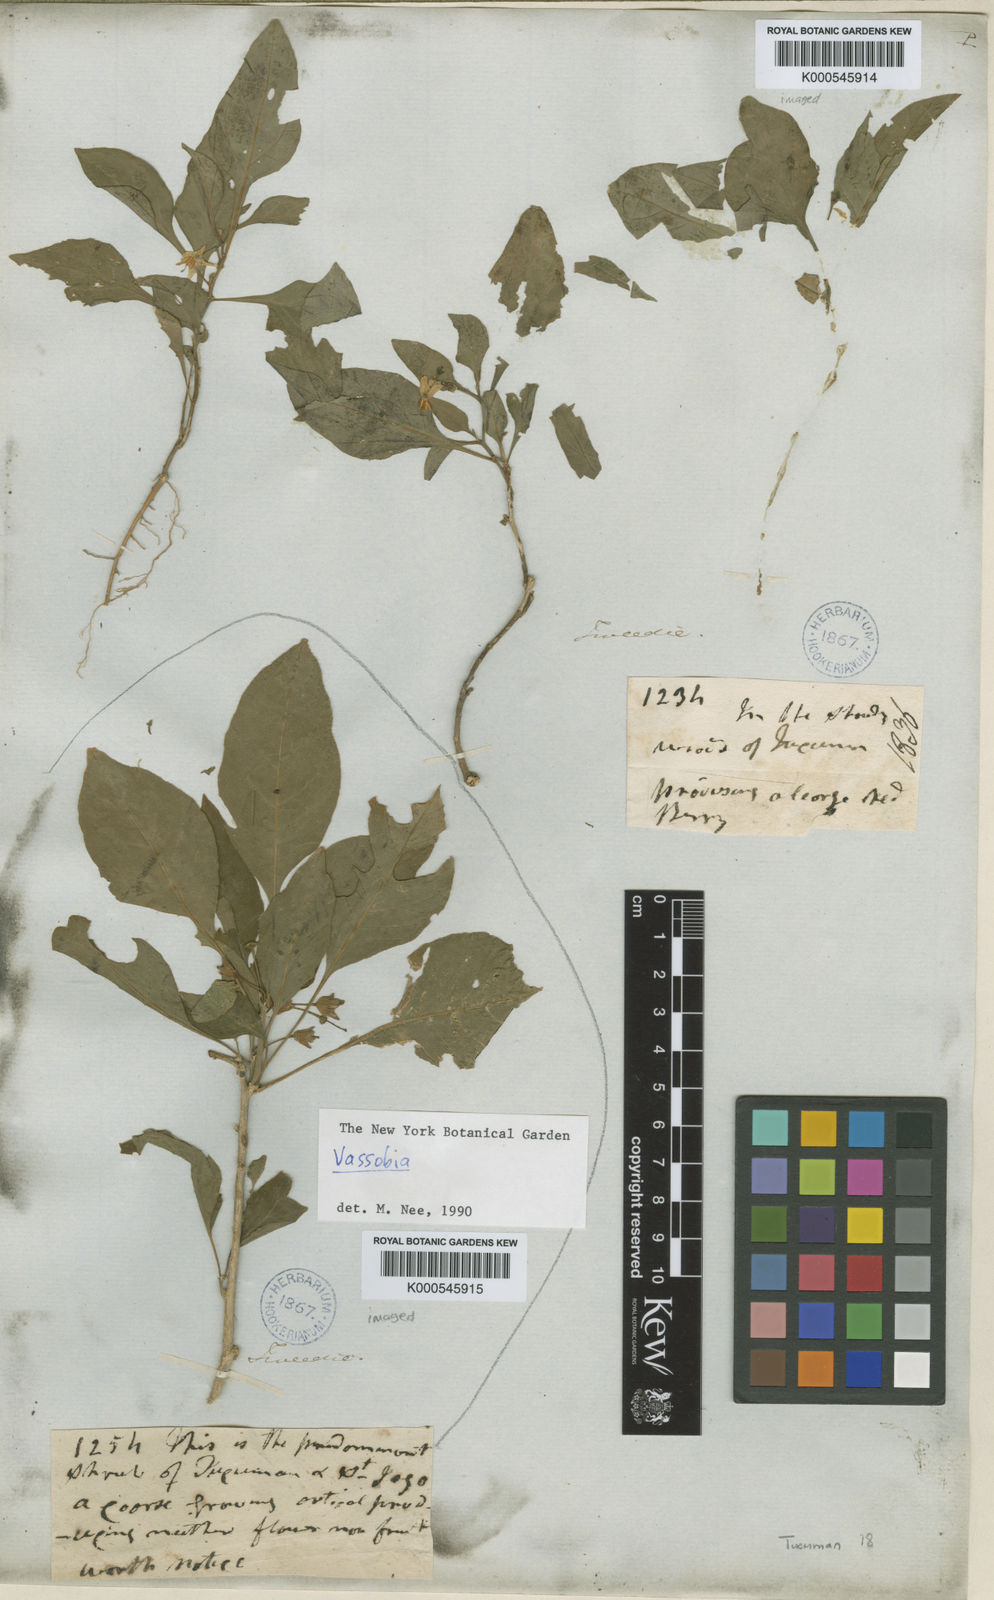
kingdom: Plantae
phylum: Tracheophyta
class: Magnoliopsida
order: Solanales
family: Solanaceae
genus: Vassobia
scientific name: Vassobia
